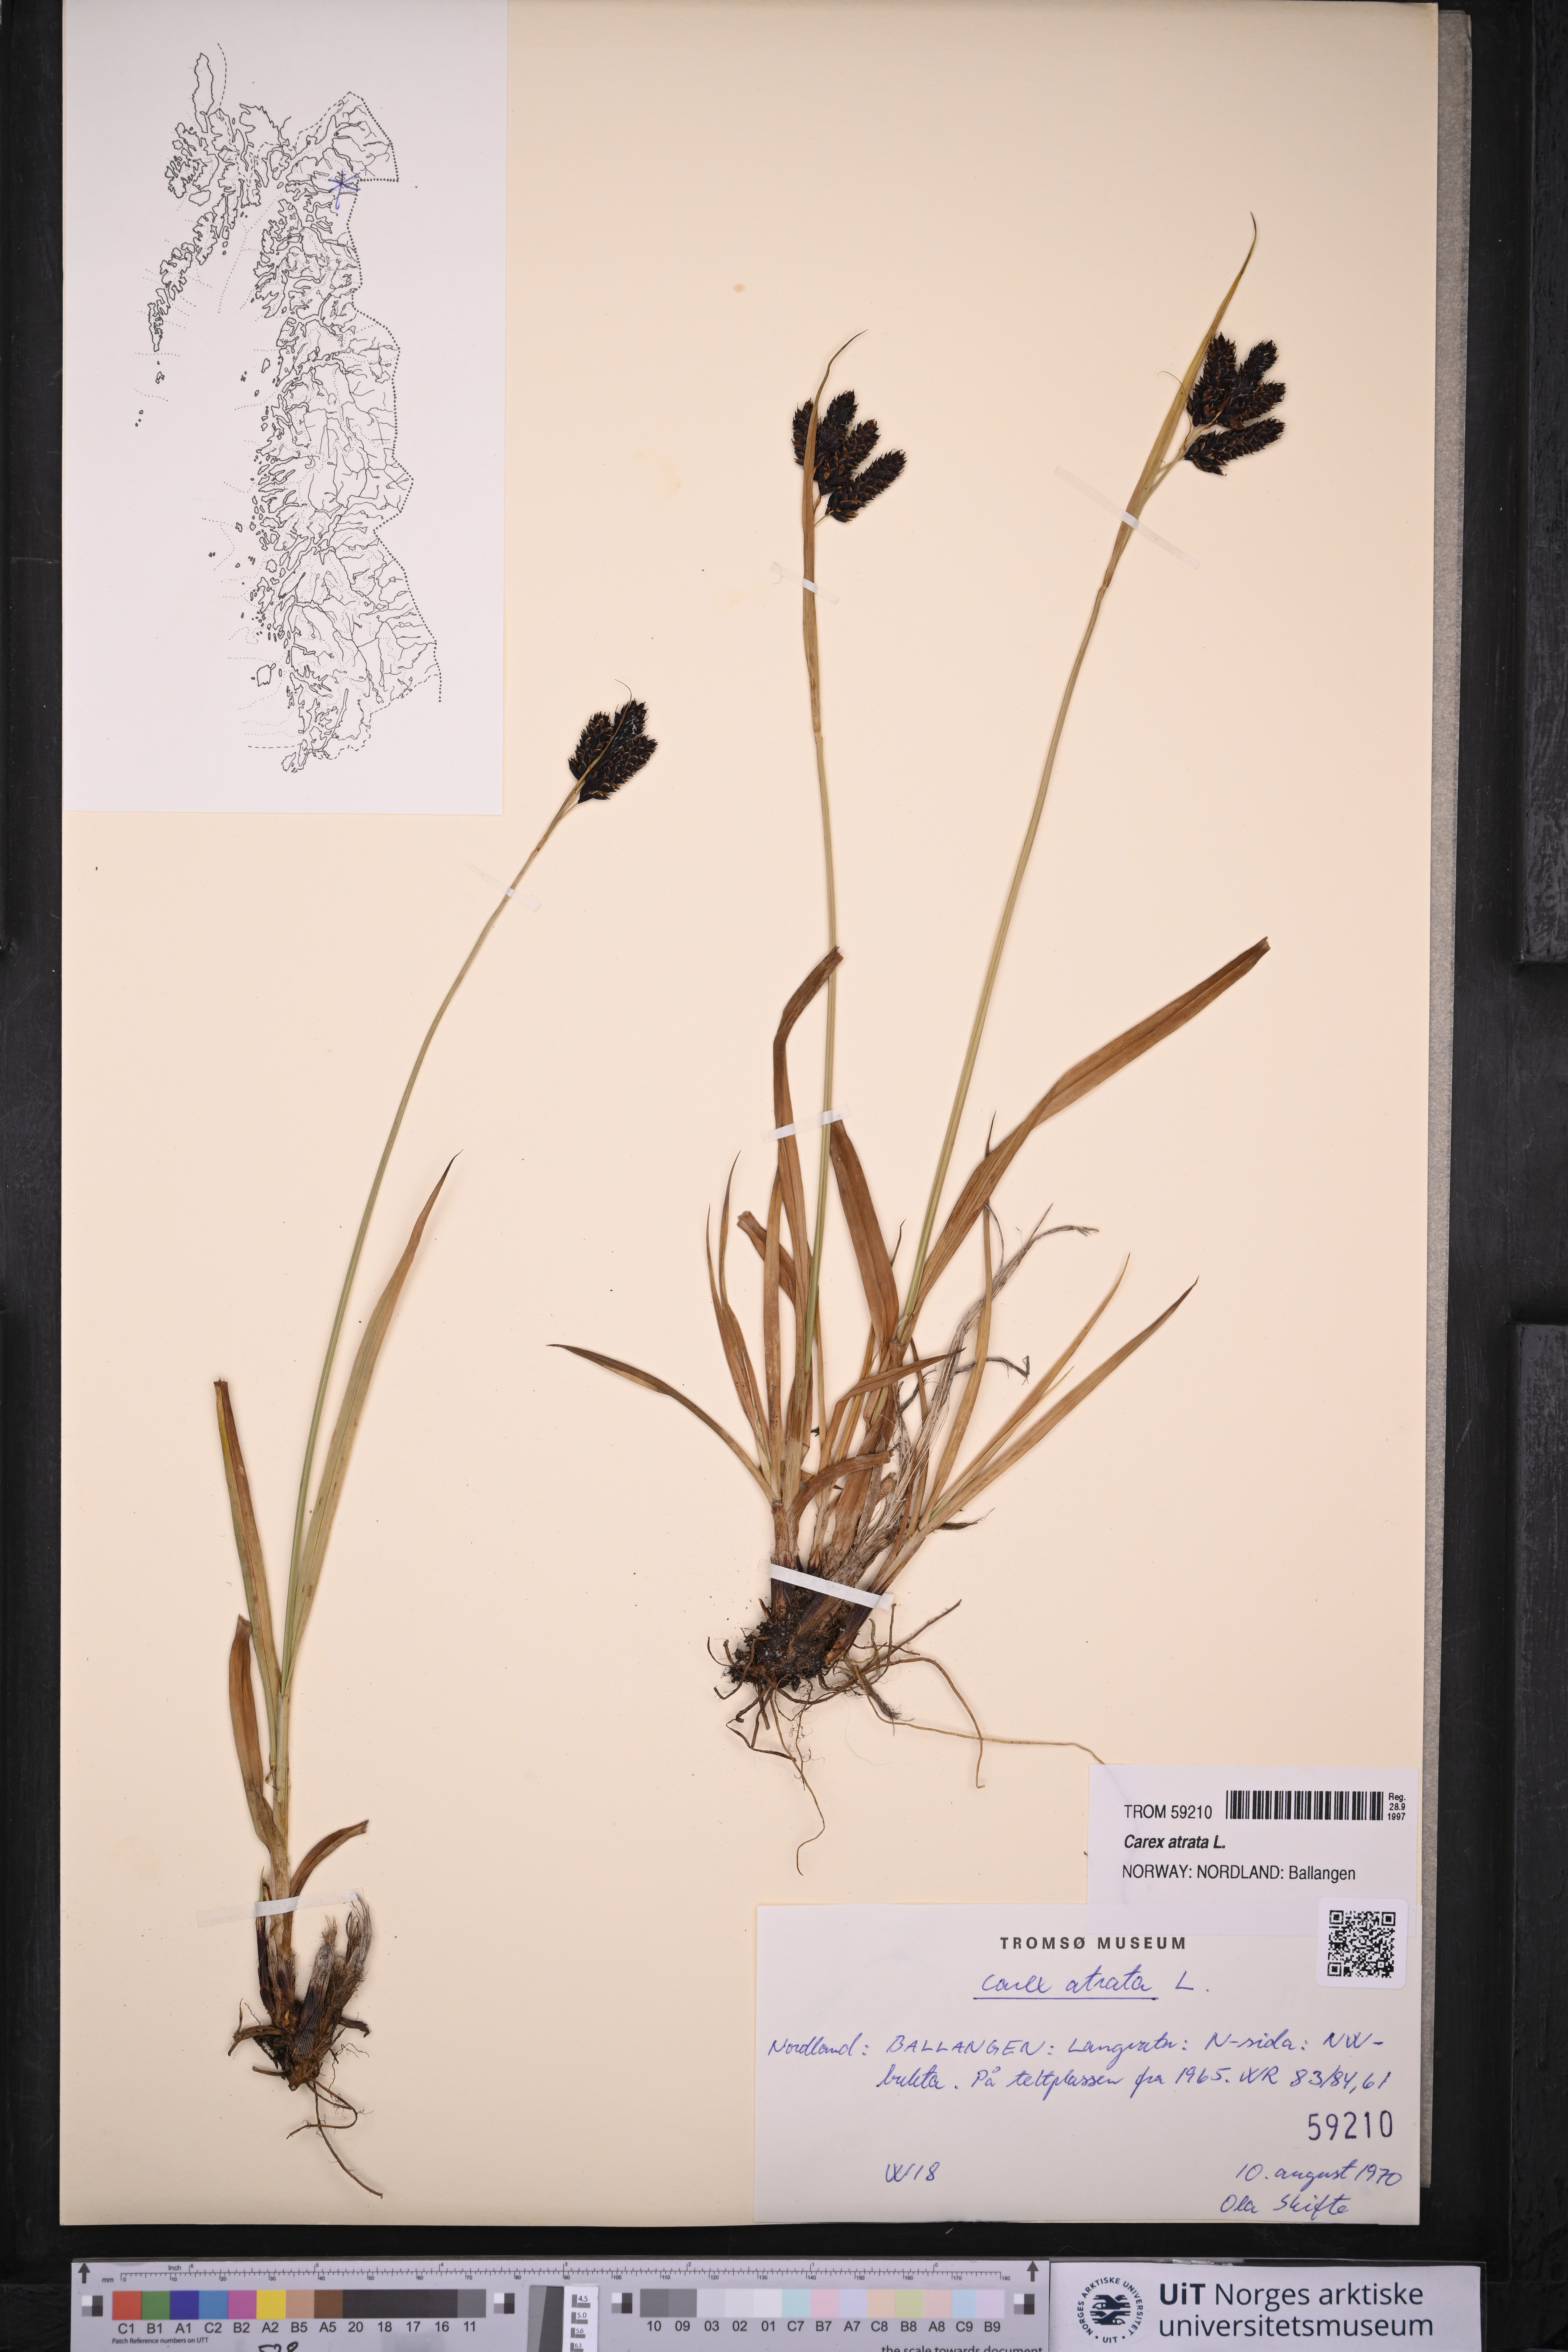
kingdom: Plantae
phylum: Tracheophyta
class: Liliopsida
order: Poales
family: Cyperaceae
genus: Carex
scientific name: Carex atrata
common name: Black alpine sedge
